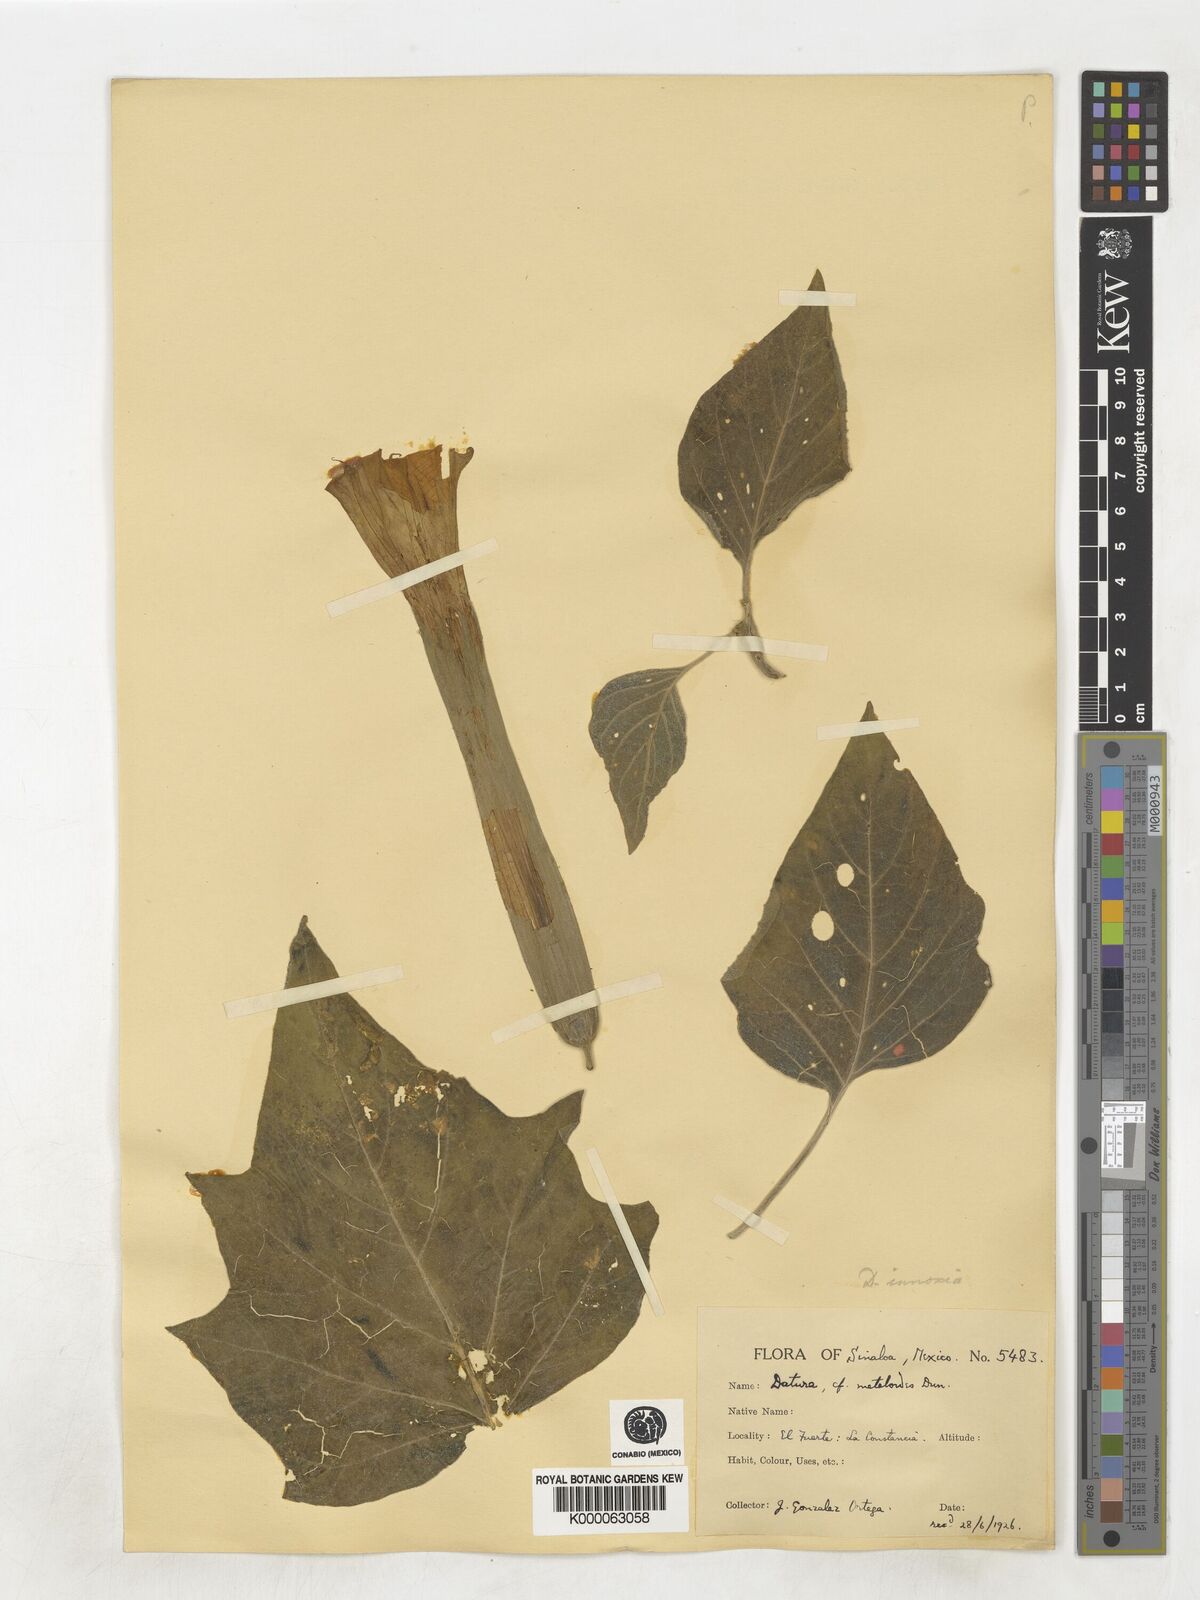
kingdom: Plantae
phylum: Tracheophyta
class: Magnoliopsida
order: Solanales
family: Solanaceae
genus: Datura
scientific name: Datura
